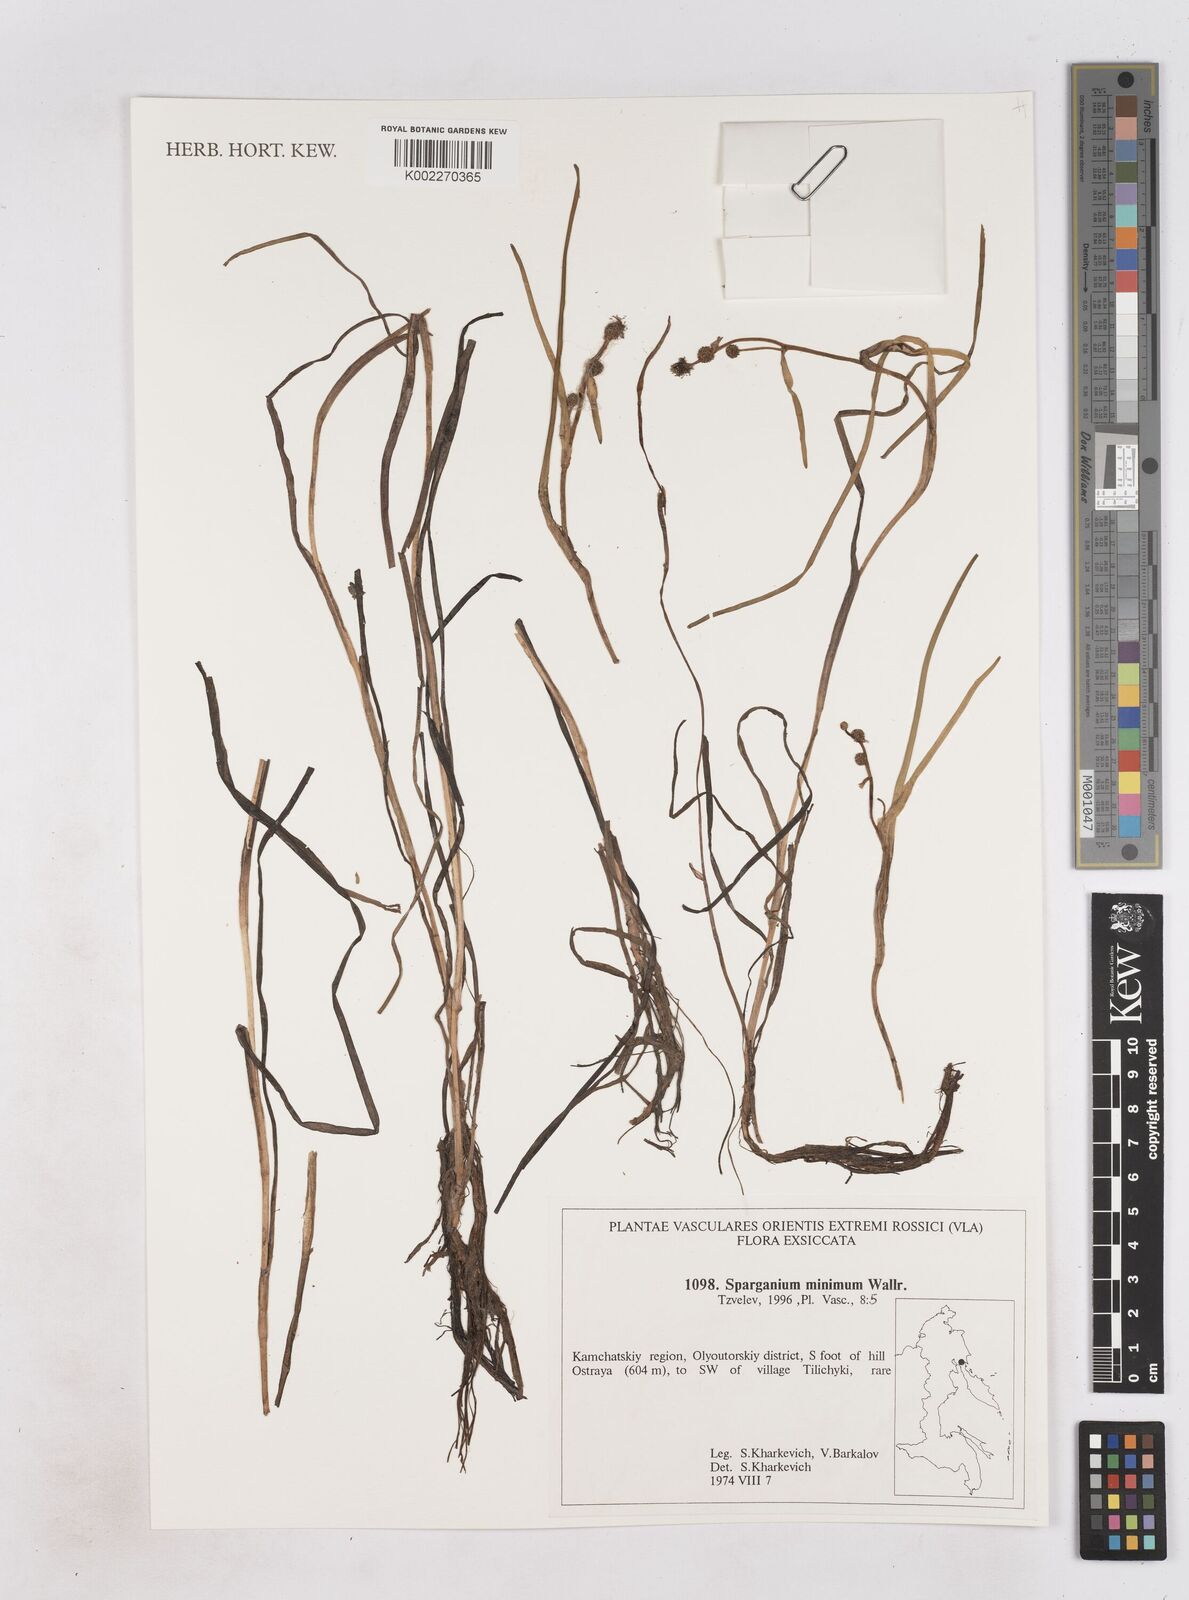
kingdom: Plantae
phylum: Tracheophyta
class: Liliopsida
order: Poales
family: Typhaceae
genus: Sparganium
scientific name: Sparganium natans
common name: Least bur-reed
